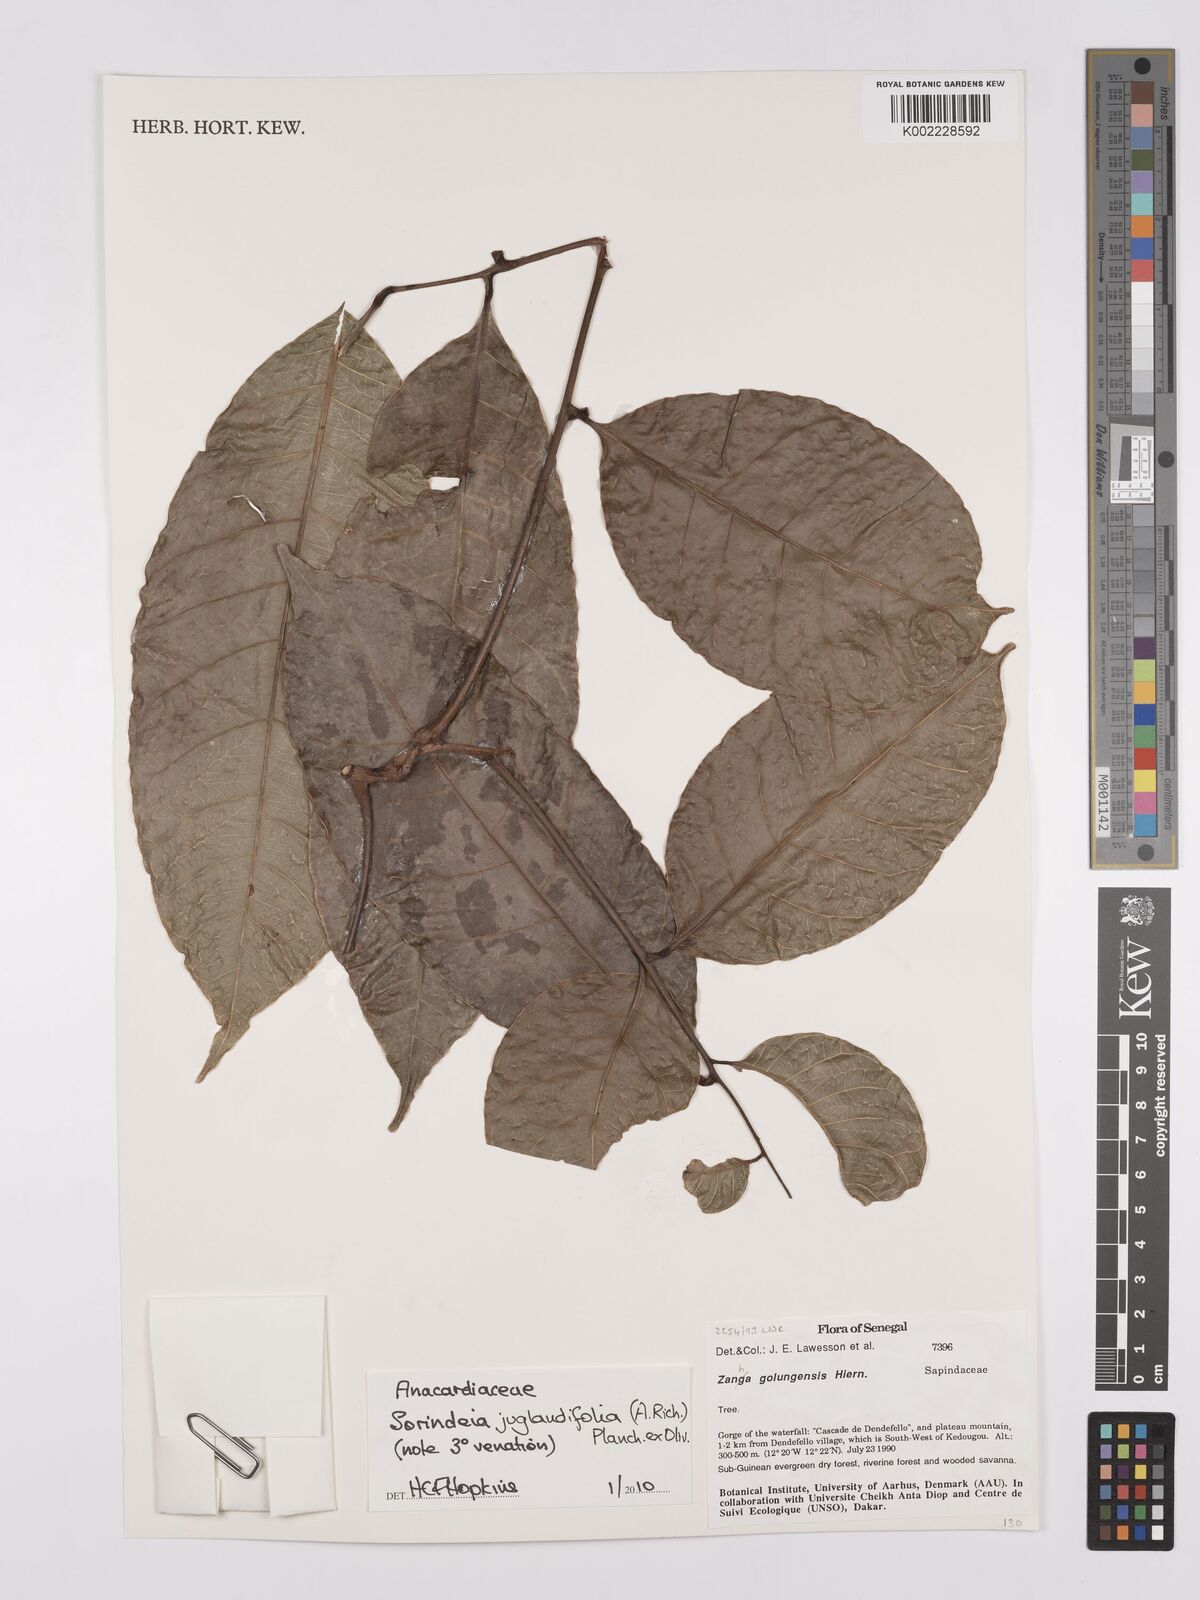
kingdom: Plantae
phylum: Tracheophyta
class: Magnoliopsida
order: Sapindales
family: Anacardiaceae
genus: Sorindeia
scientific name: Sorindeia juglandifolia
